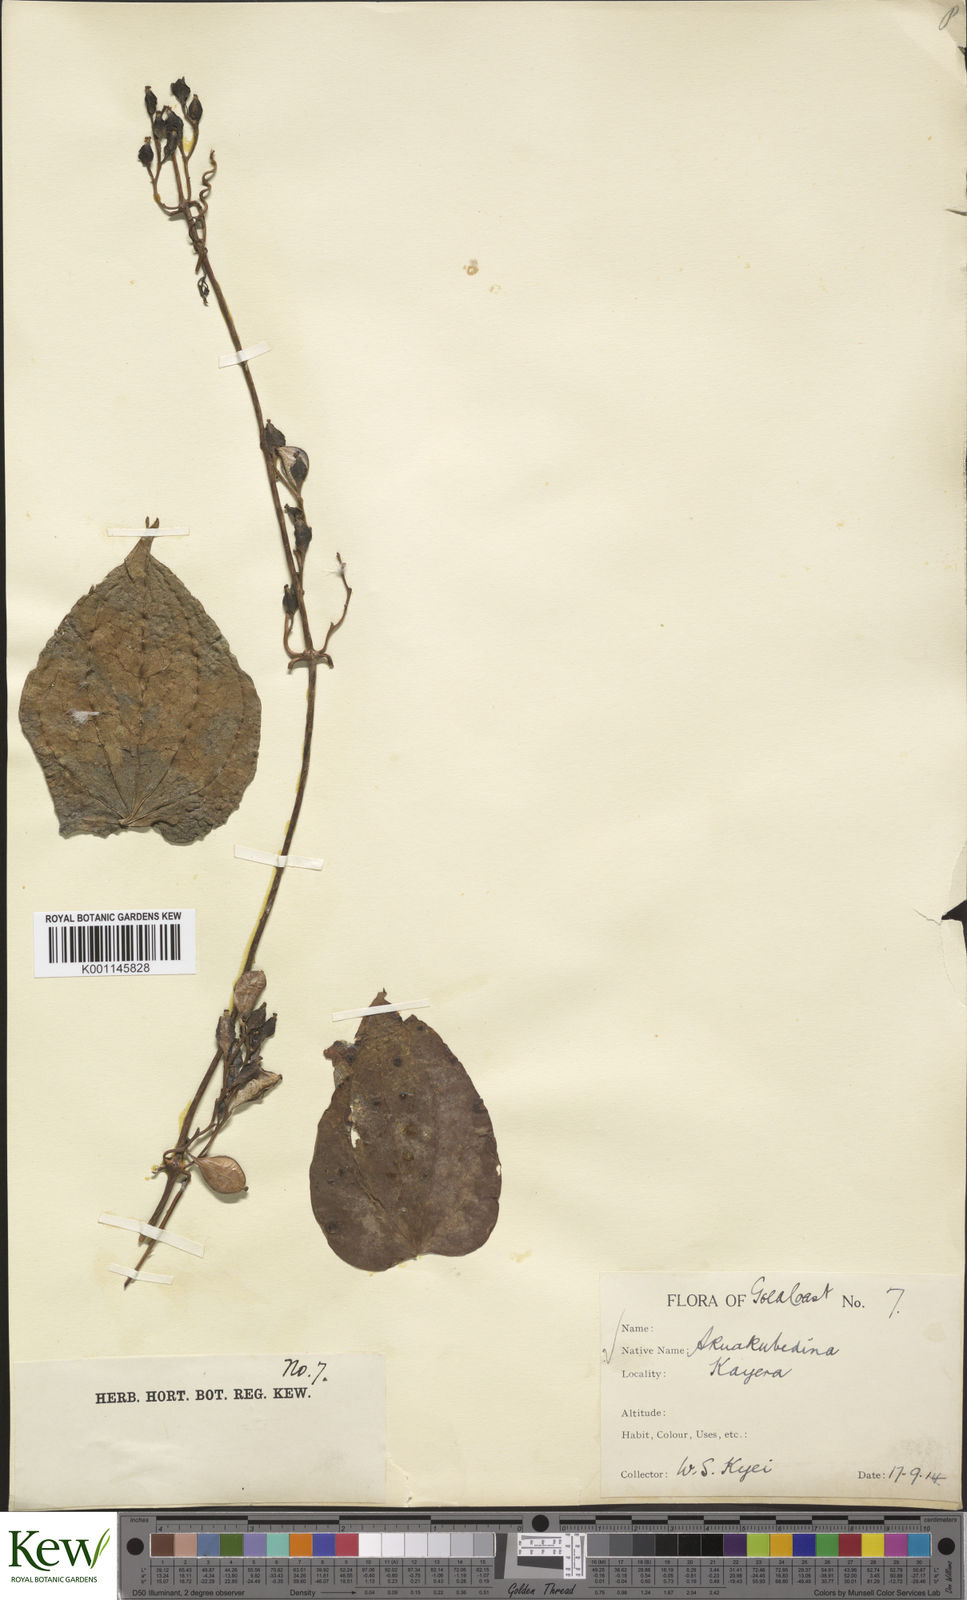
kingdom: Plantae
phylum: Tracheophyta
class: Liliopsida
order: Dioscoreales
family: Dioscoreaceae
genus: Dioscorea
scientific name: Dioscorea cayenensis
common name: Attoto yam
